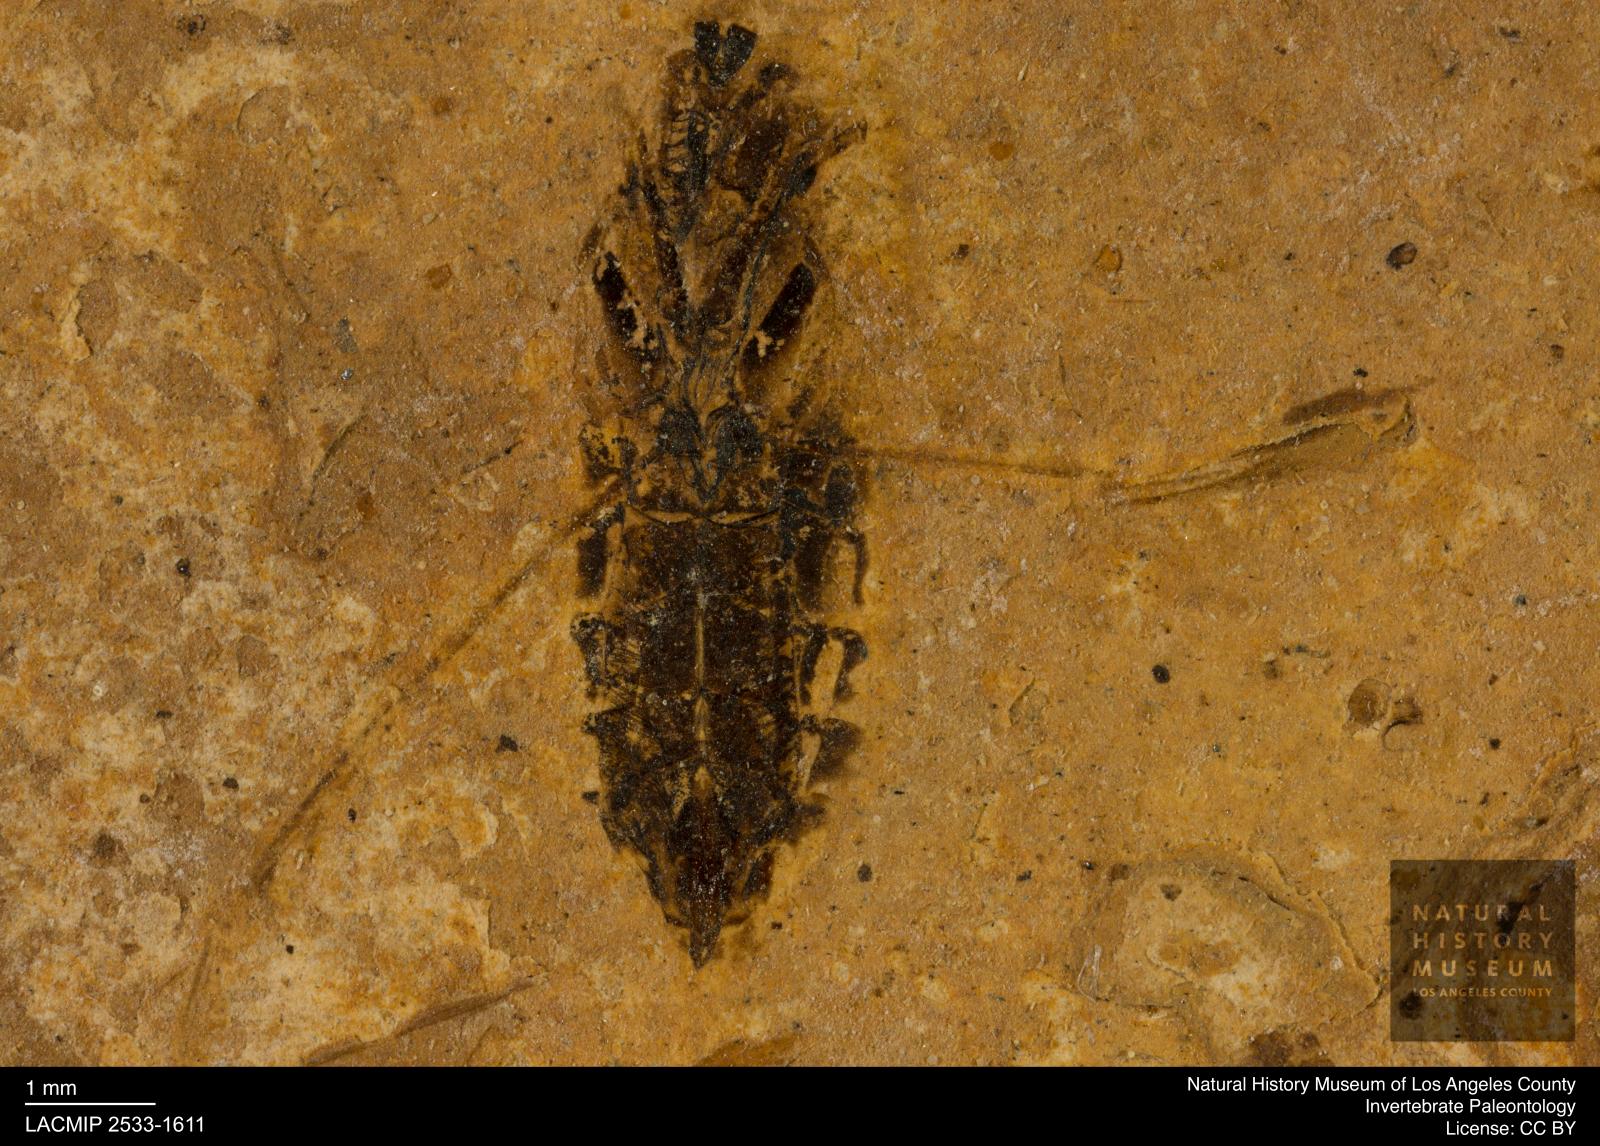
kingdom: Animalia
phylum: Arthropoda
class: Insecta
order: Hemiptera
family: Notonectidae
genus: Notonecta
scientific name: Notonecta
